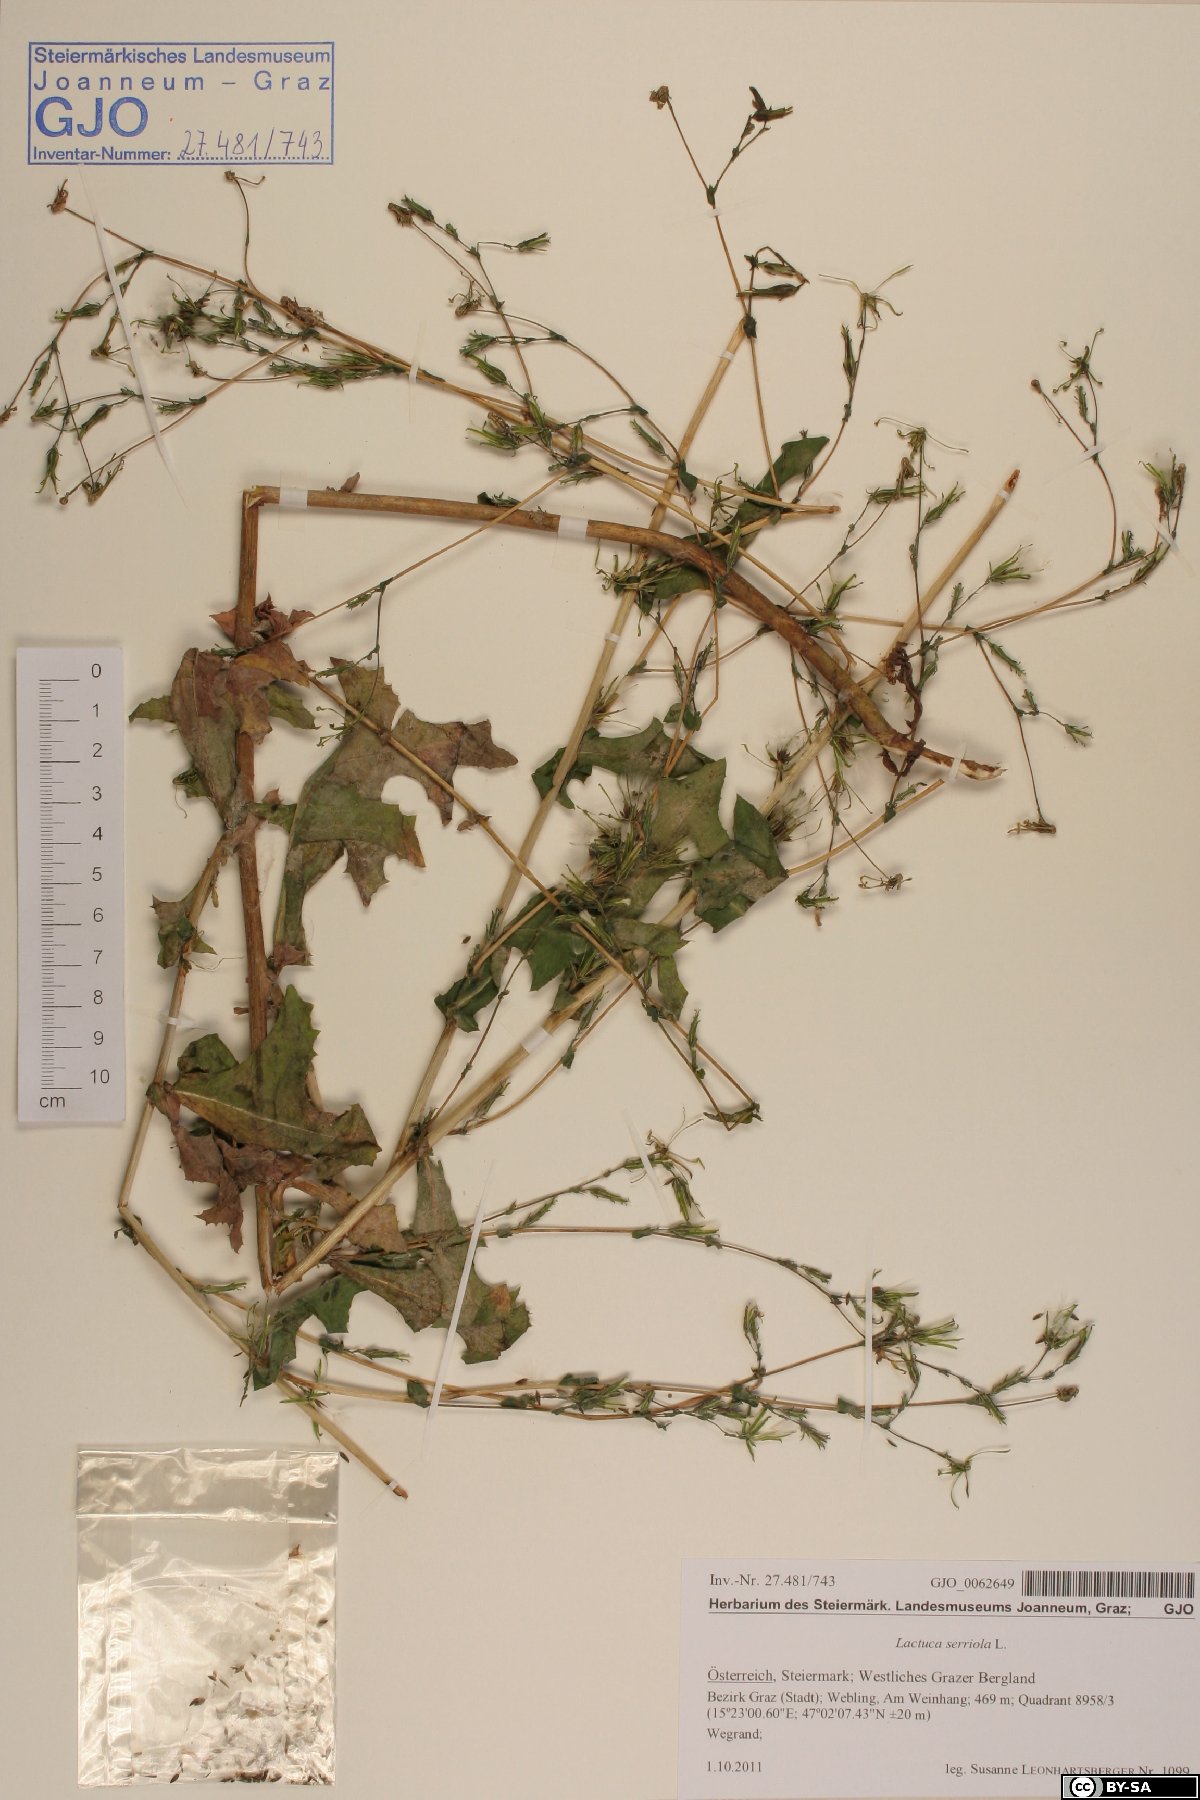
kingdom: Plantae
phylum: Tracheophyta
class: Magnoliopsida
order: Asterales
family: Asteraceae
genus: Lactuca
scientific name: Lactuca serriola
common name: Prickly lettuce
